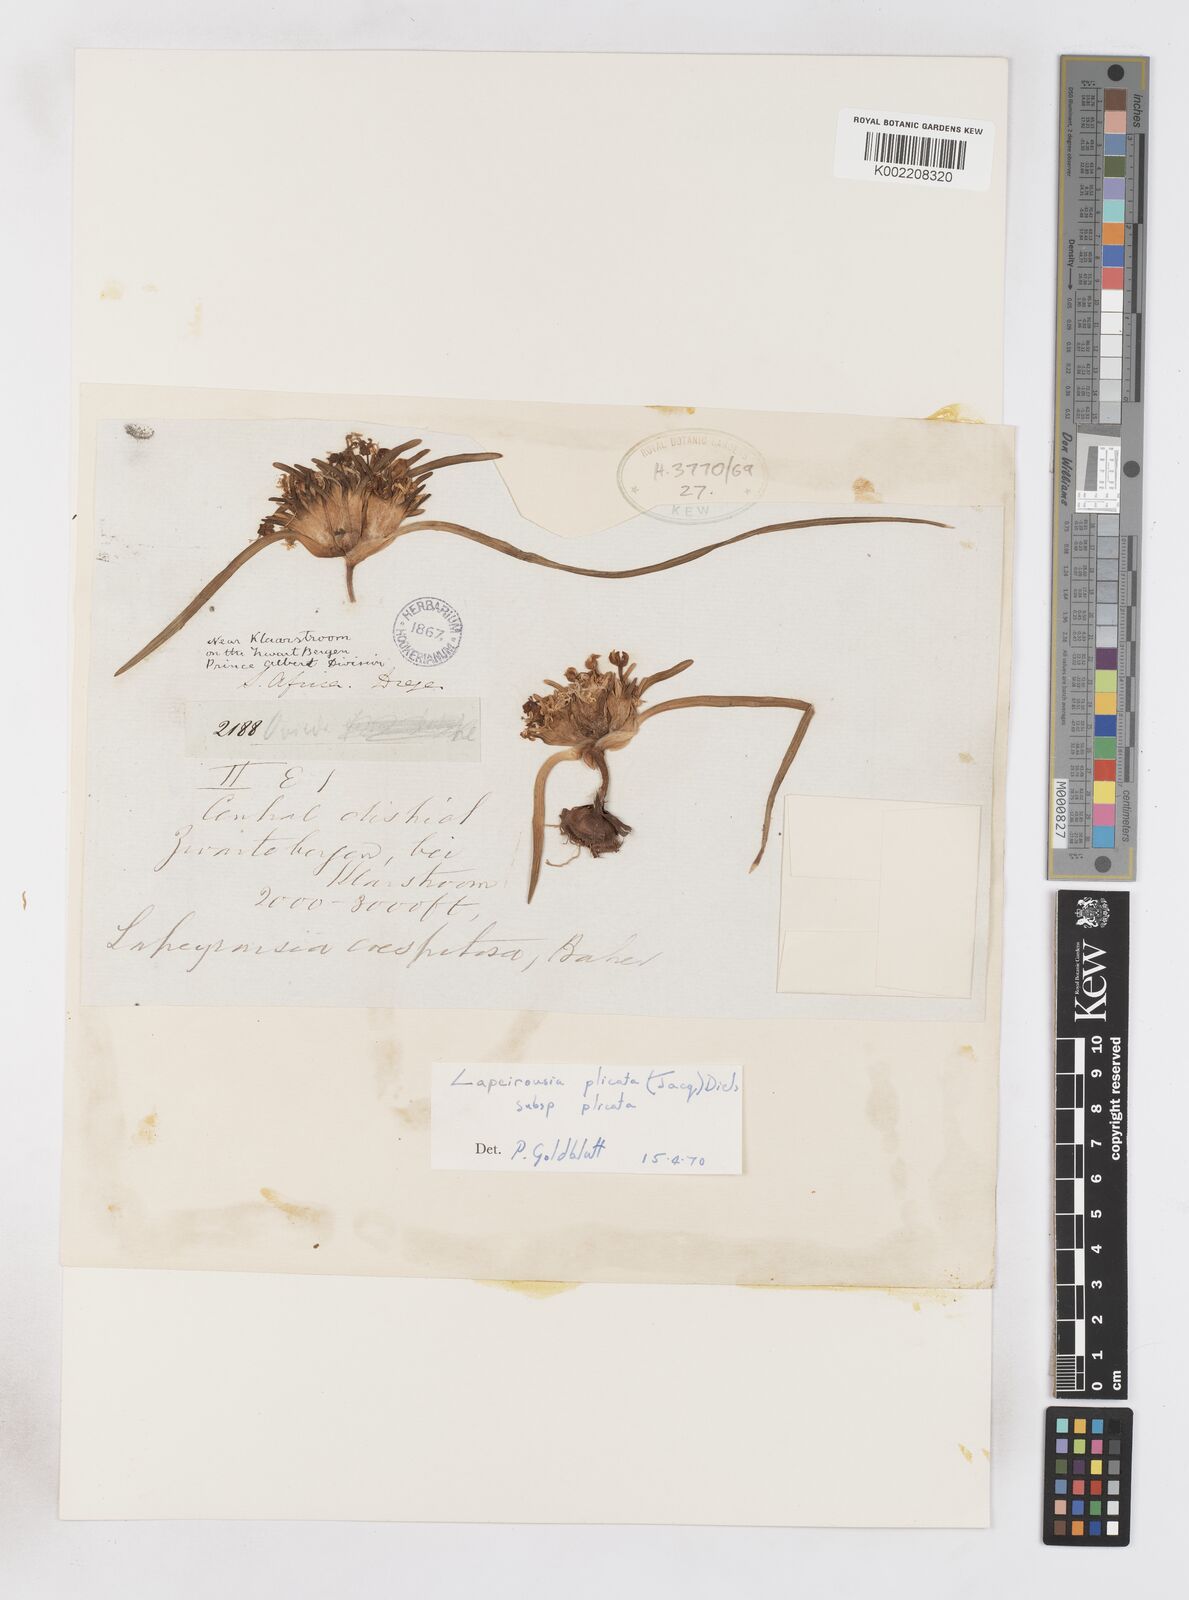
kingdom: Plantae
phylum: Tracheophyta
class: Liliopsida
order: Asparagales
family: Iridaceae
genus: Lapeirousia
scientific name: Lapeirousia plicata
